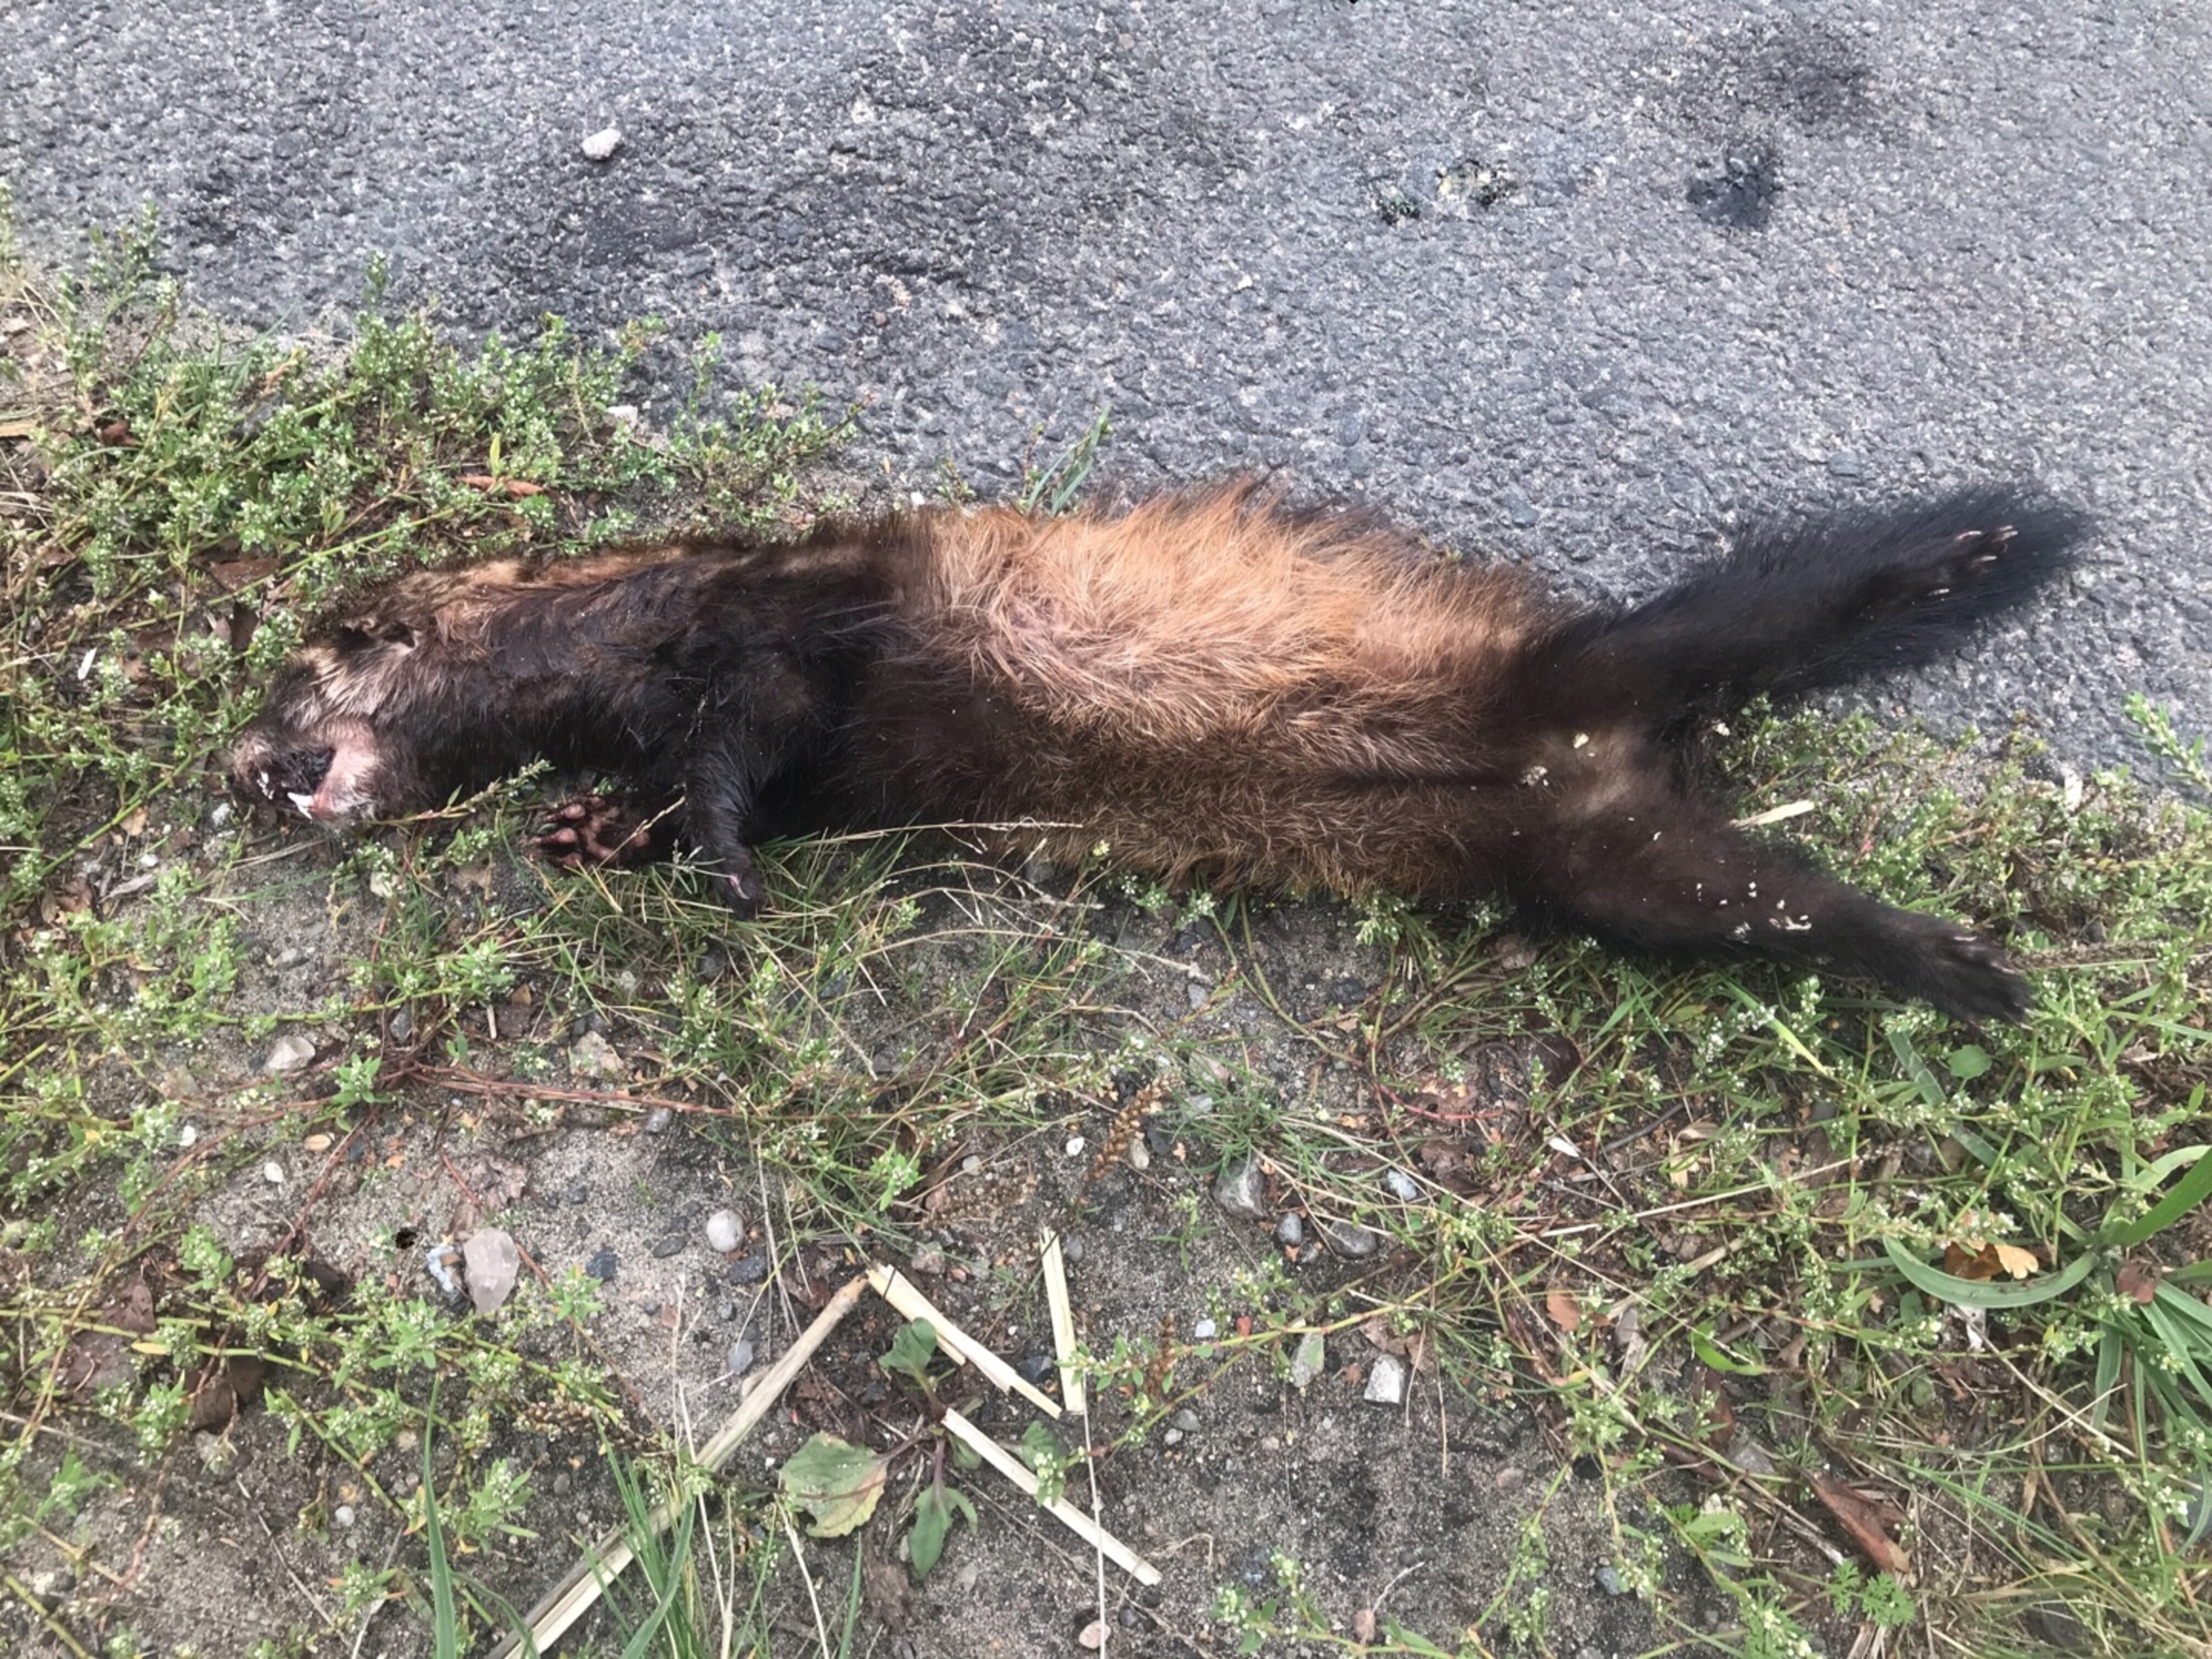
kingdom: Animalia
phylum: Chordata
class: Mammalia
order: Carnivora
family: Mustelidae
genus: Mustela
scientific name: Mustela putorius
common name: Ilder
